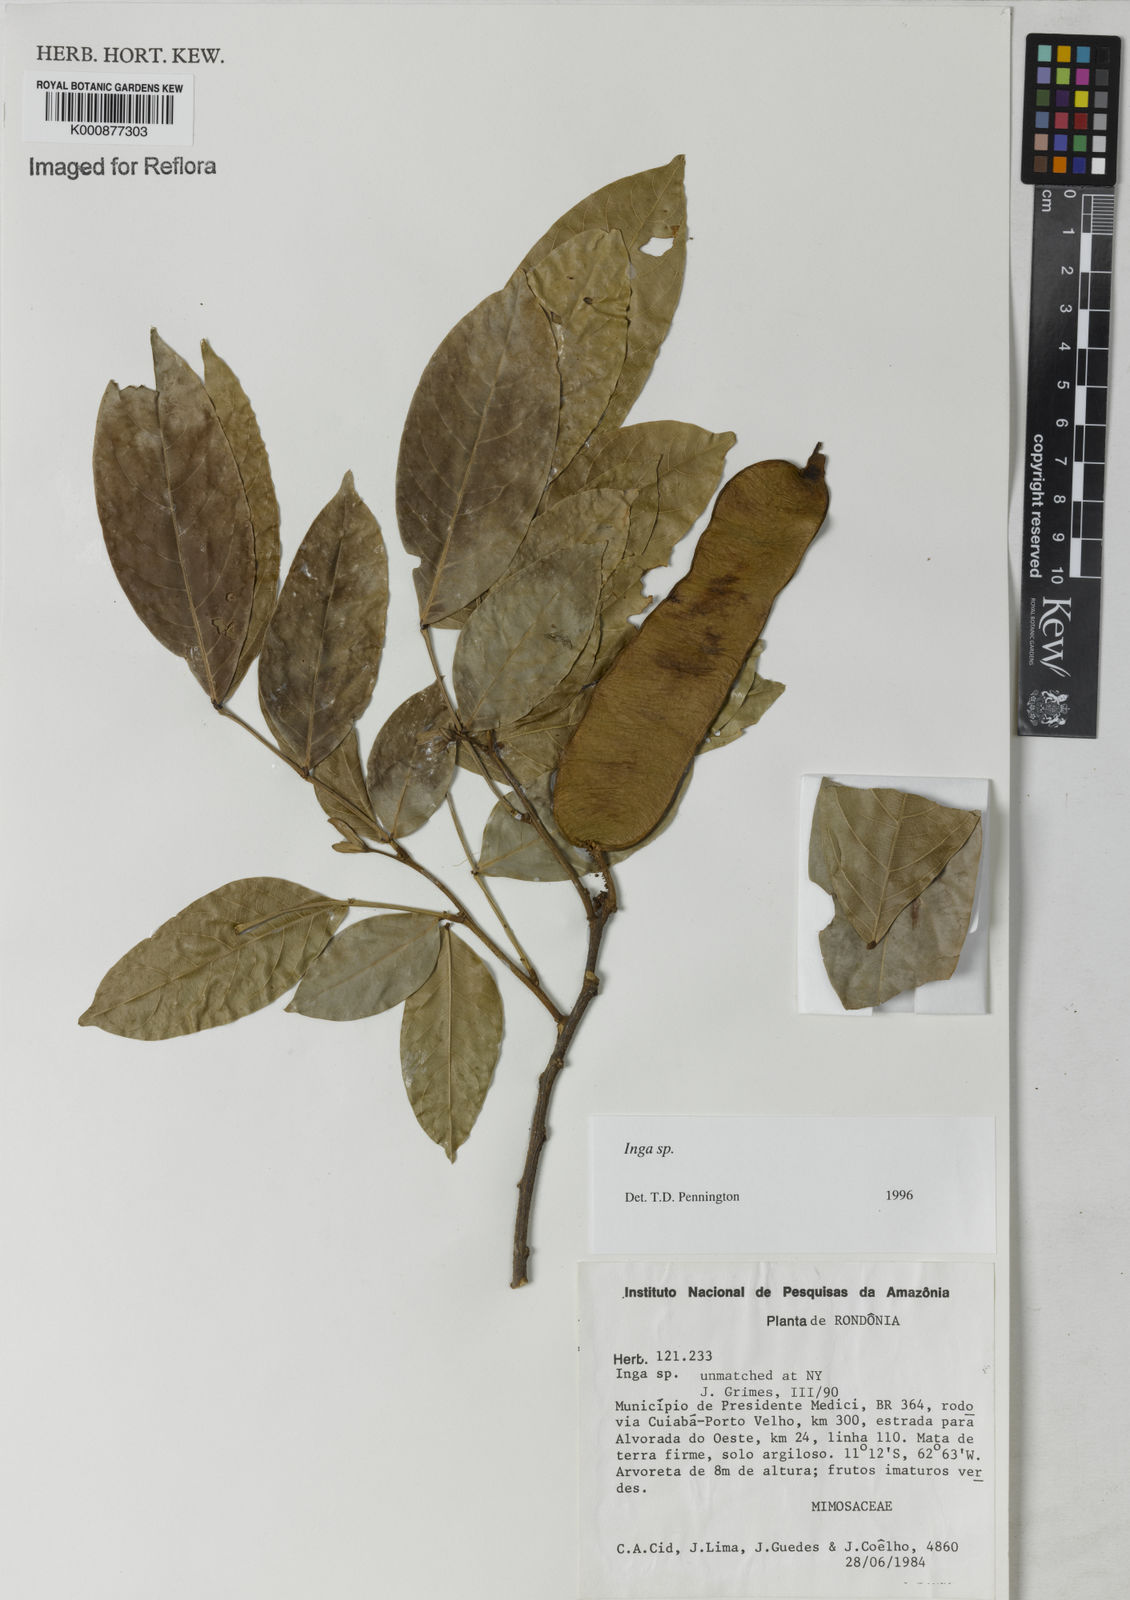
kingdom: Plantae
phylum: Tracheophyta
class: Magnoliopsida
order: Fabales
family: Fabaceae
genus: Inga
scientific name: Inga
